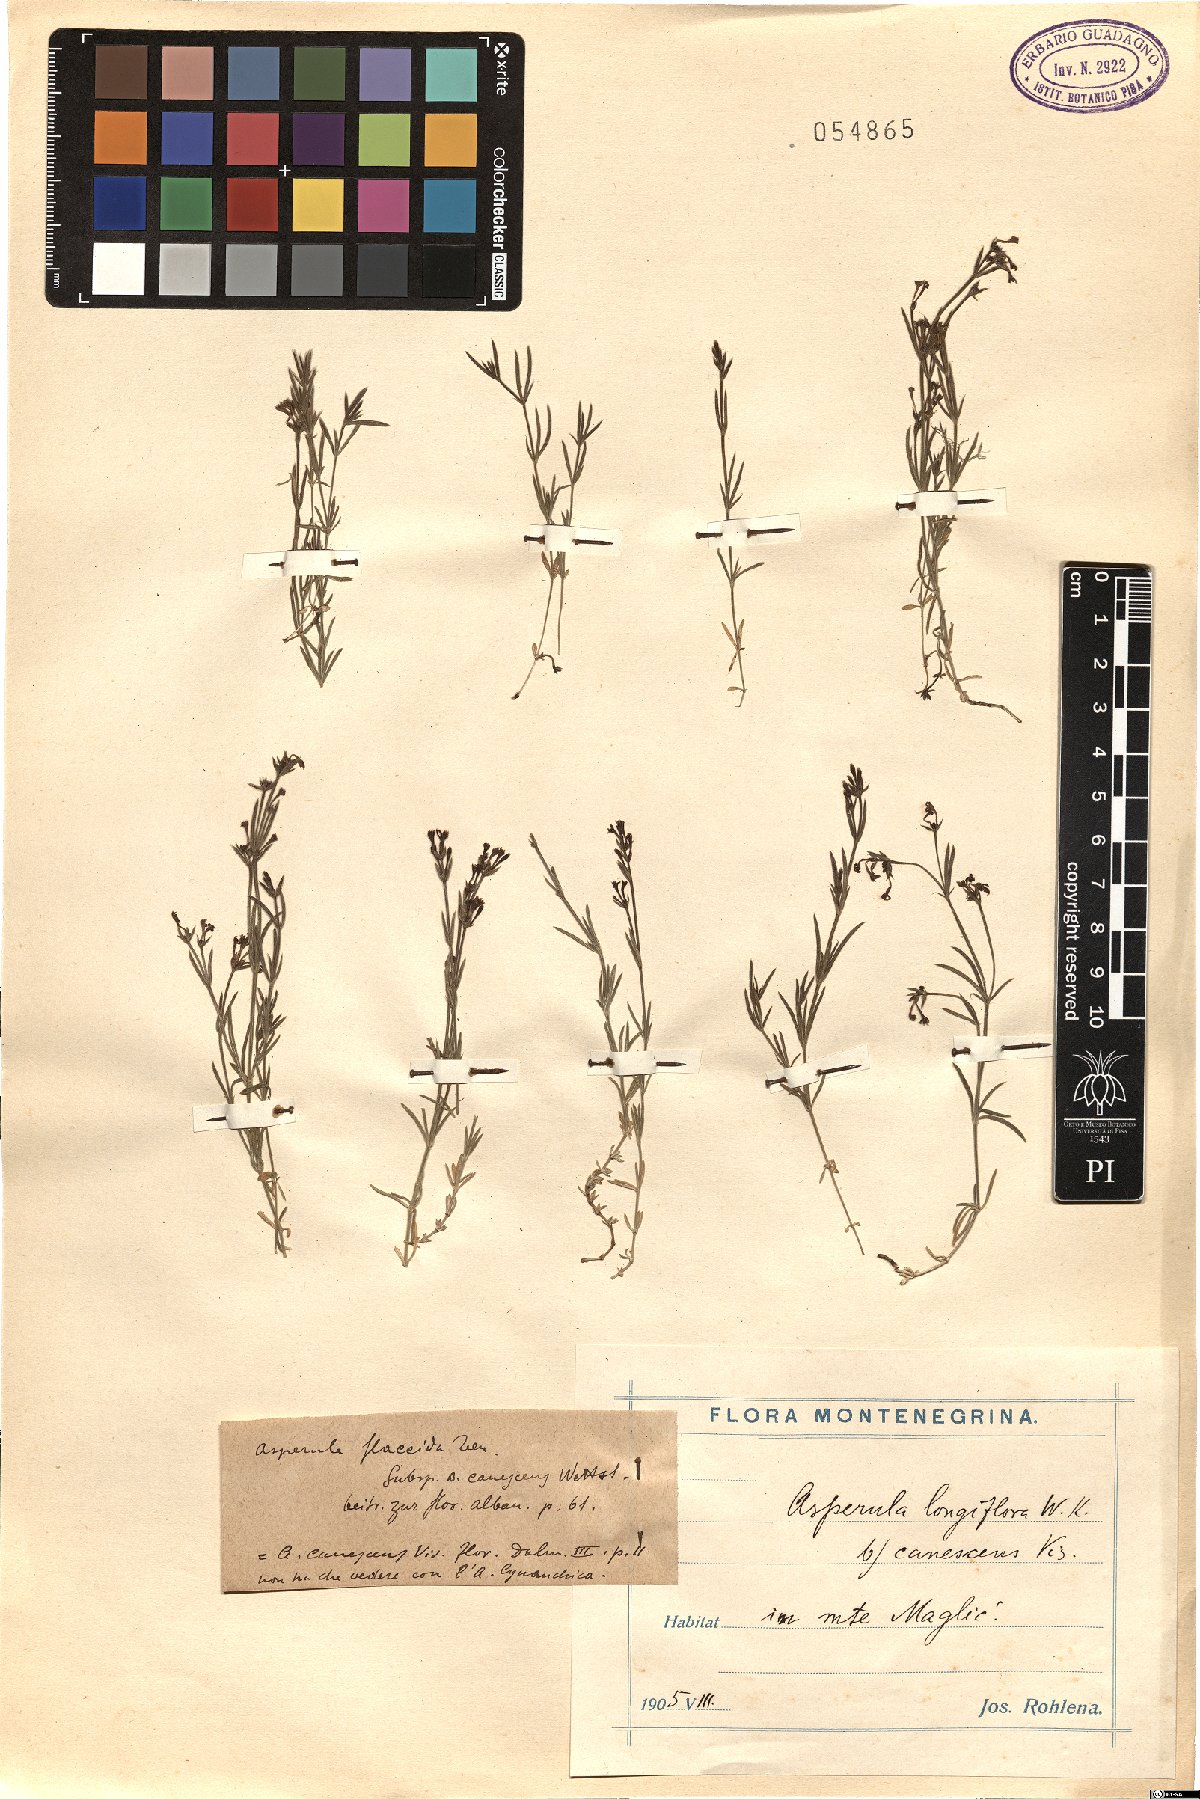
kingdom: Plantae
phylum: Tracheophyta
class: Magnoliopsida
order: Gentianales
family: Rubiaceae
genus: Cynanchica
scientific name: Cynanchica aristata
